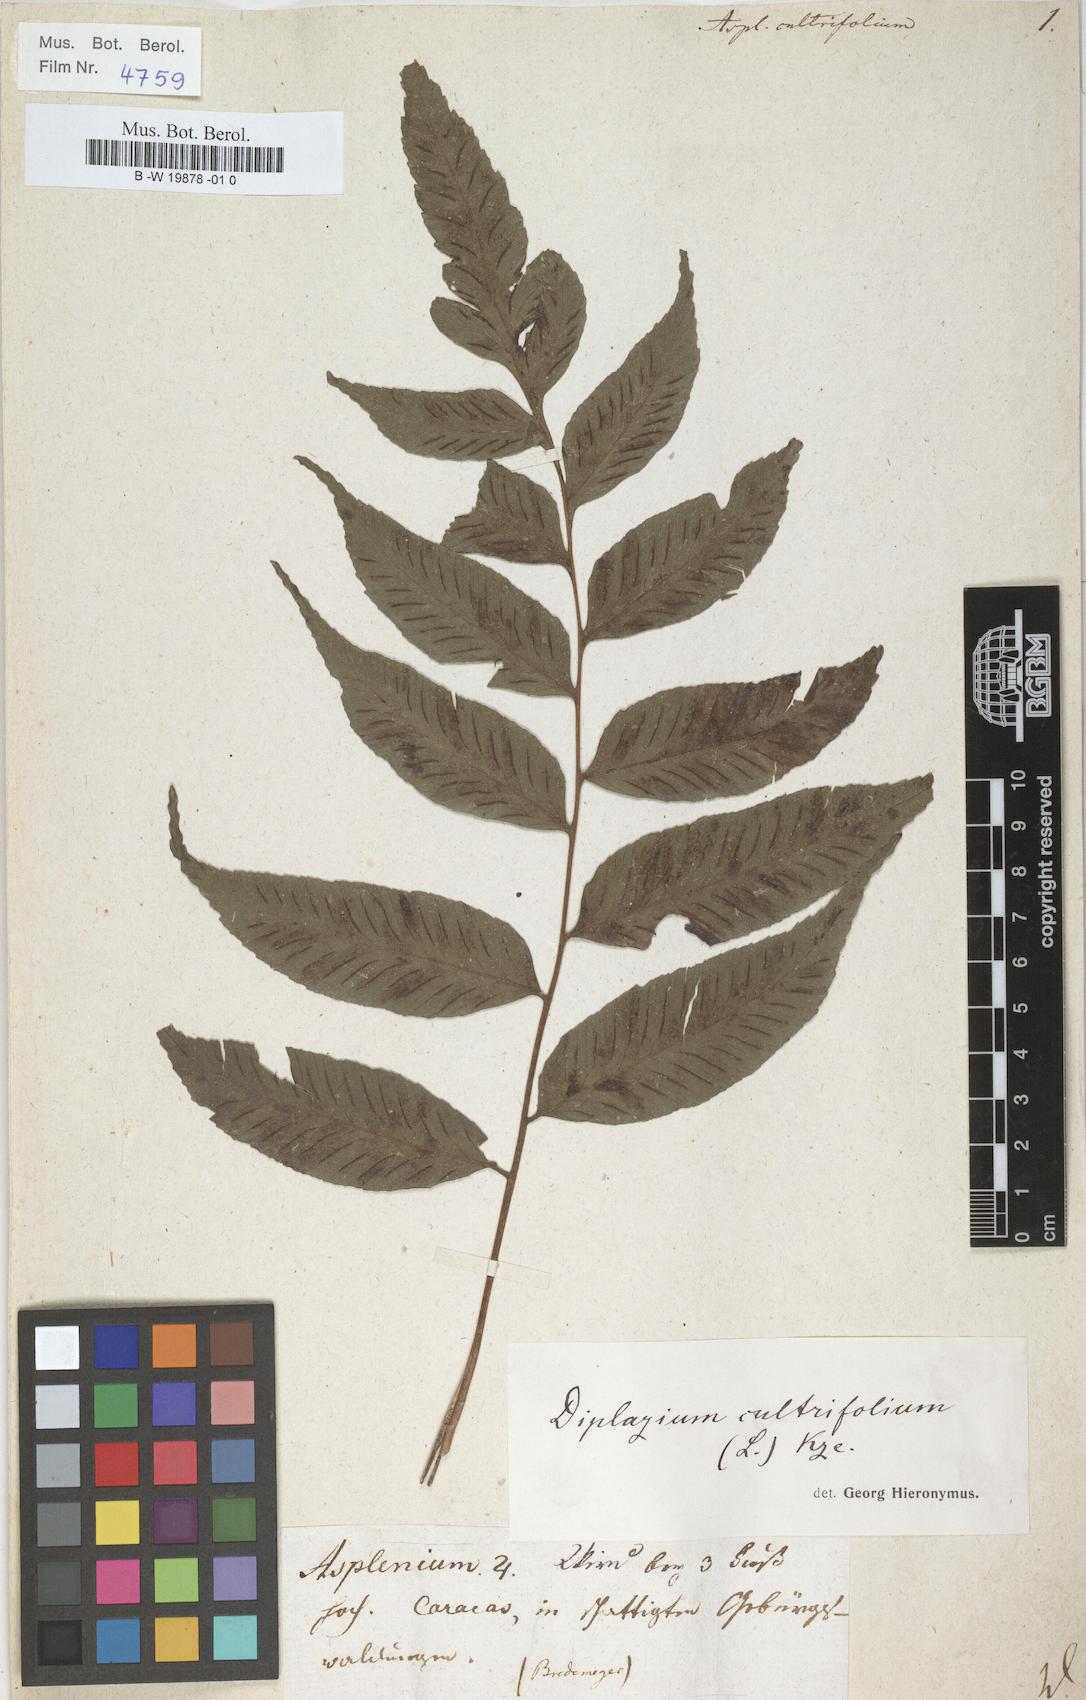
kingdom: Plantae
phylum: Tracheophyta
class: Polypodiopsida
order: Polypodiales
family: Aspleniaceae
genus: Asplenium
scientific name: Asplenium cultrifolium
